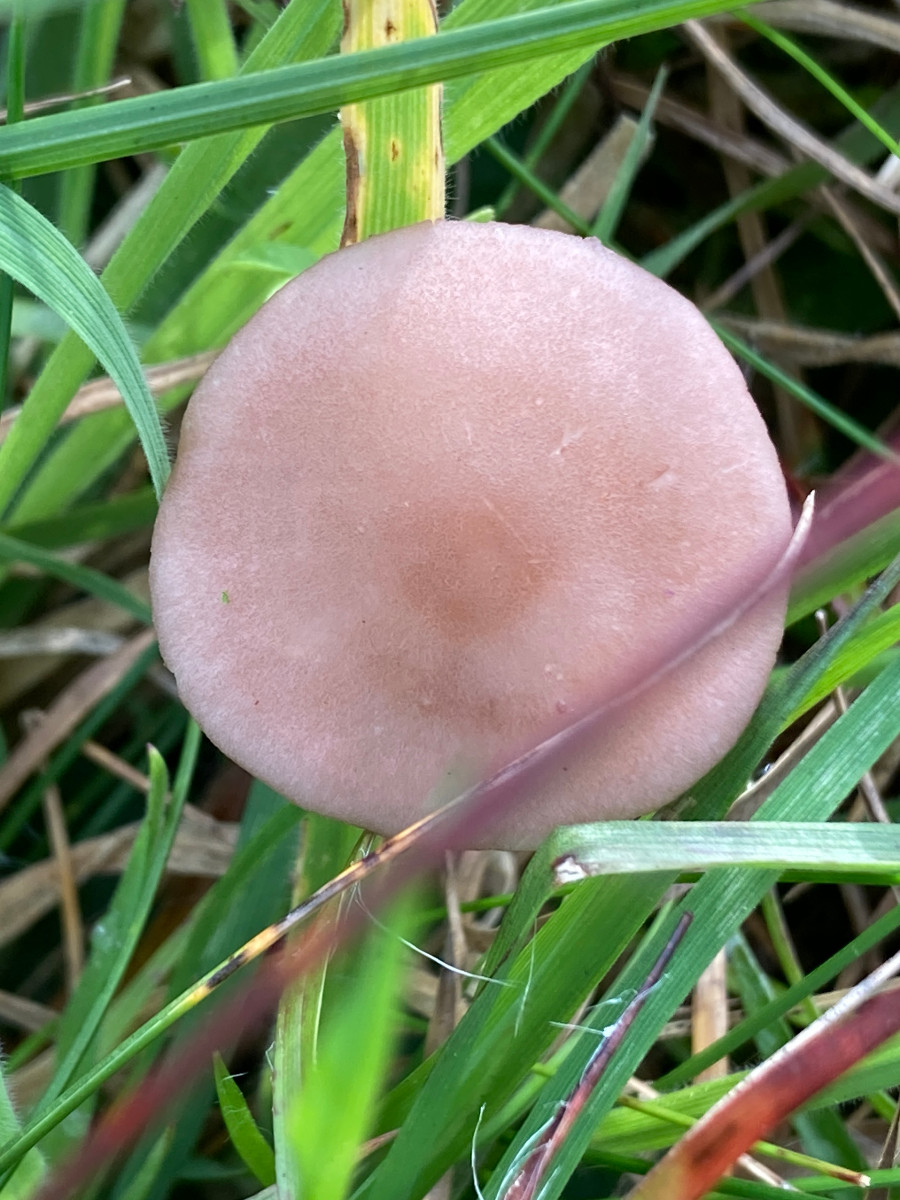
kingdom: Fungi
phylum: Basidiomycota
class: Agaricomycetes
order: Agaricales
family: Lyophyllaceae
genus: Calocybe
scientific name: Calocybe carnea
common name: rosa fagerhat
